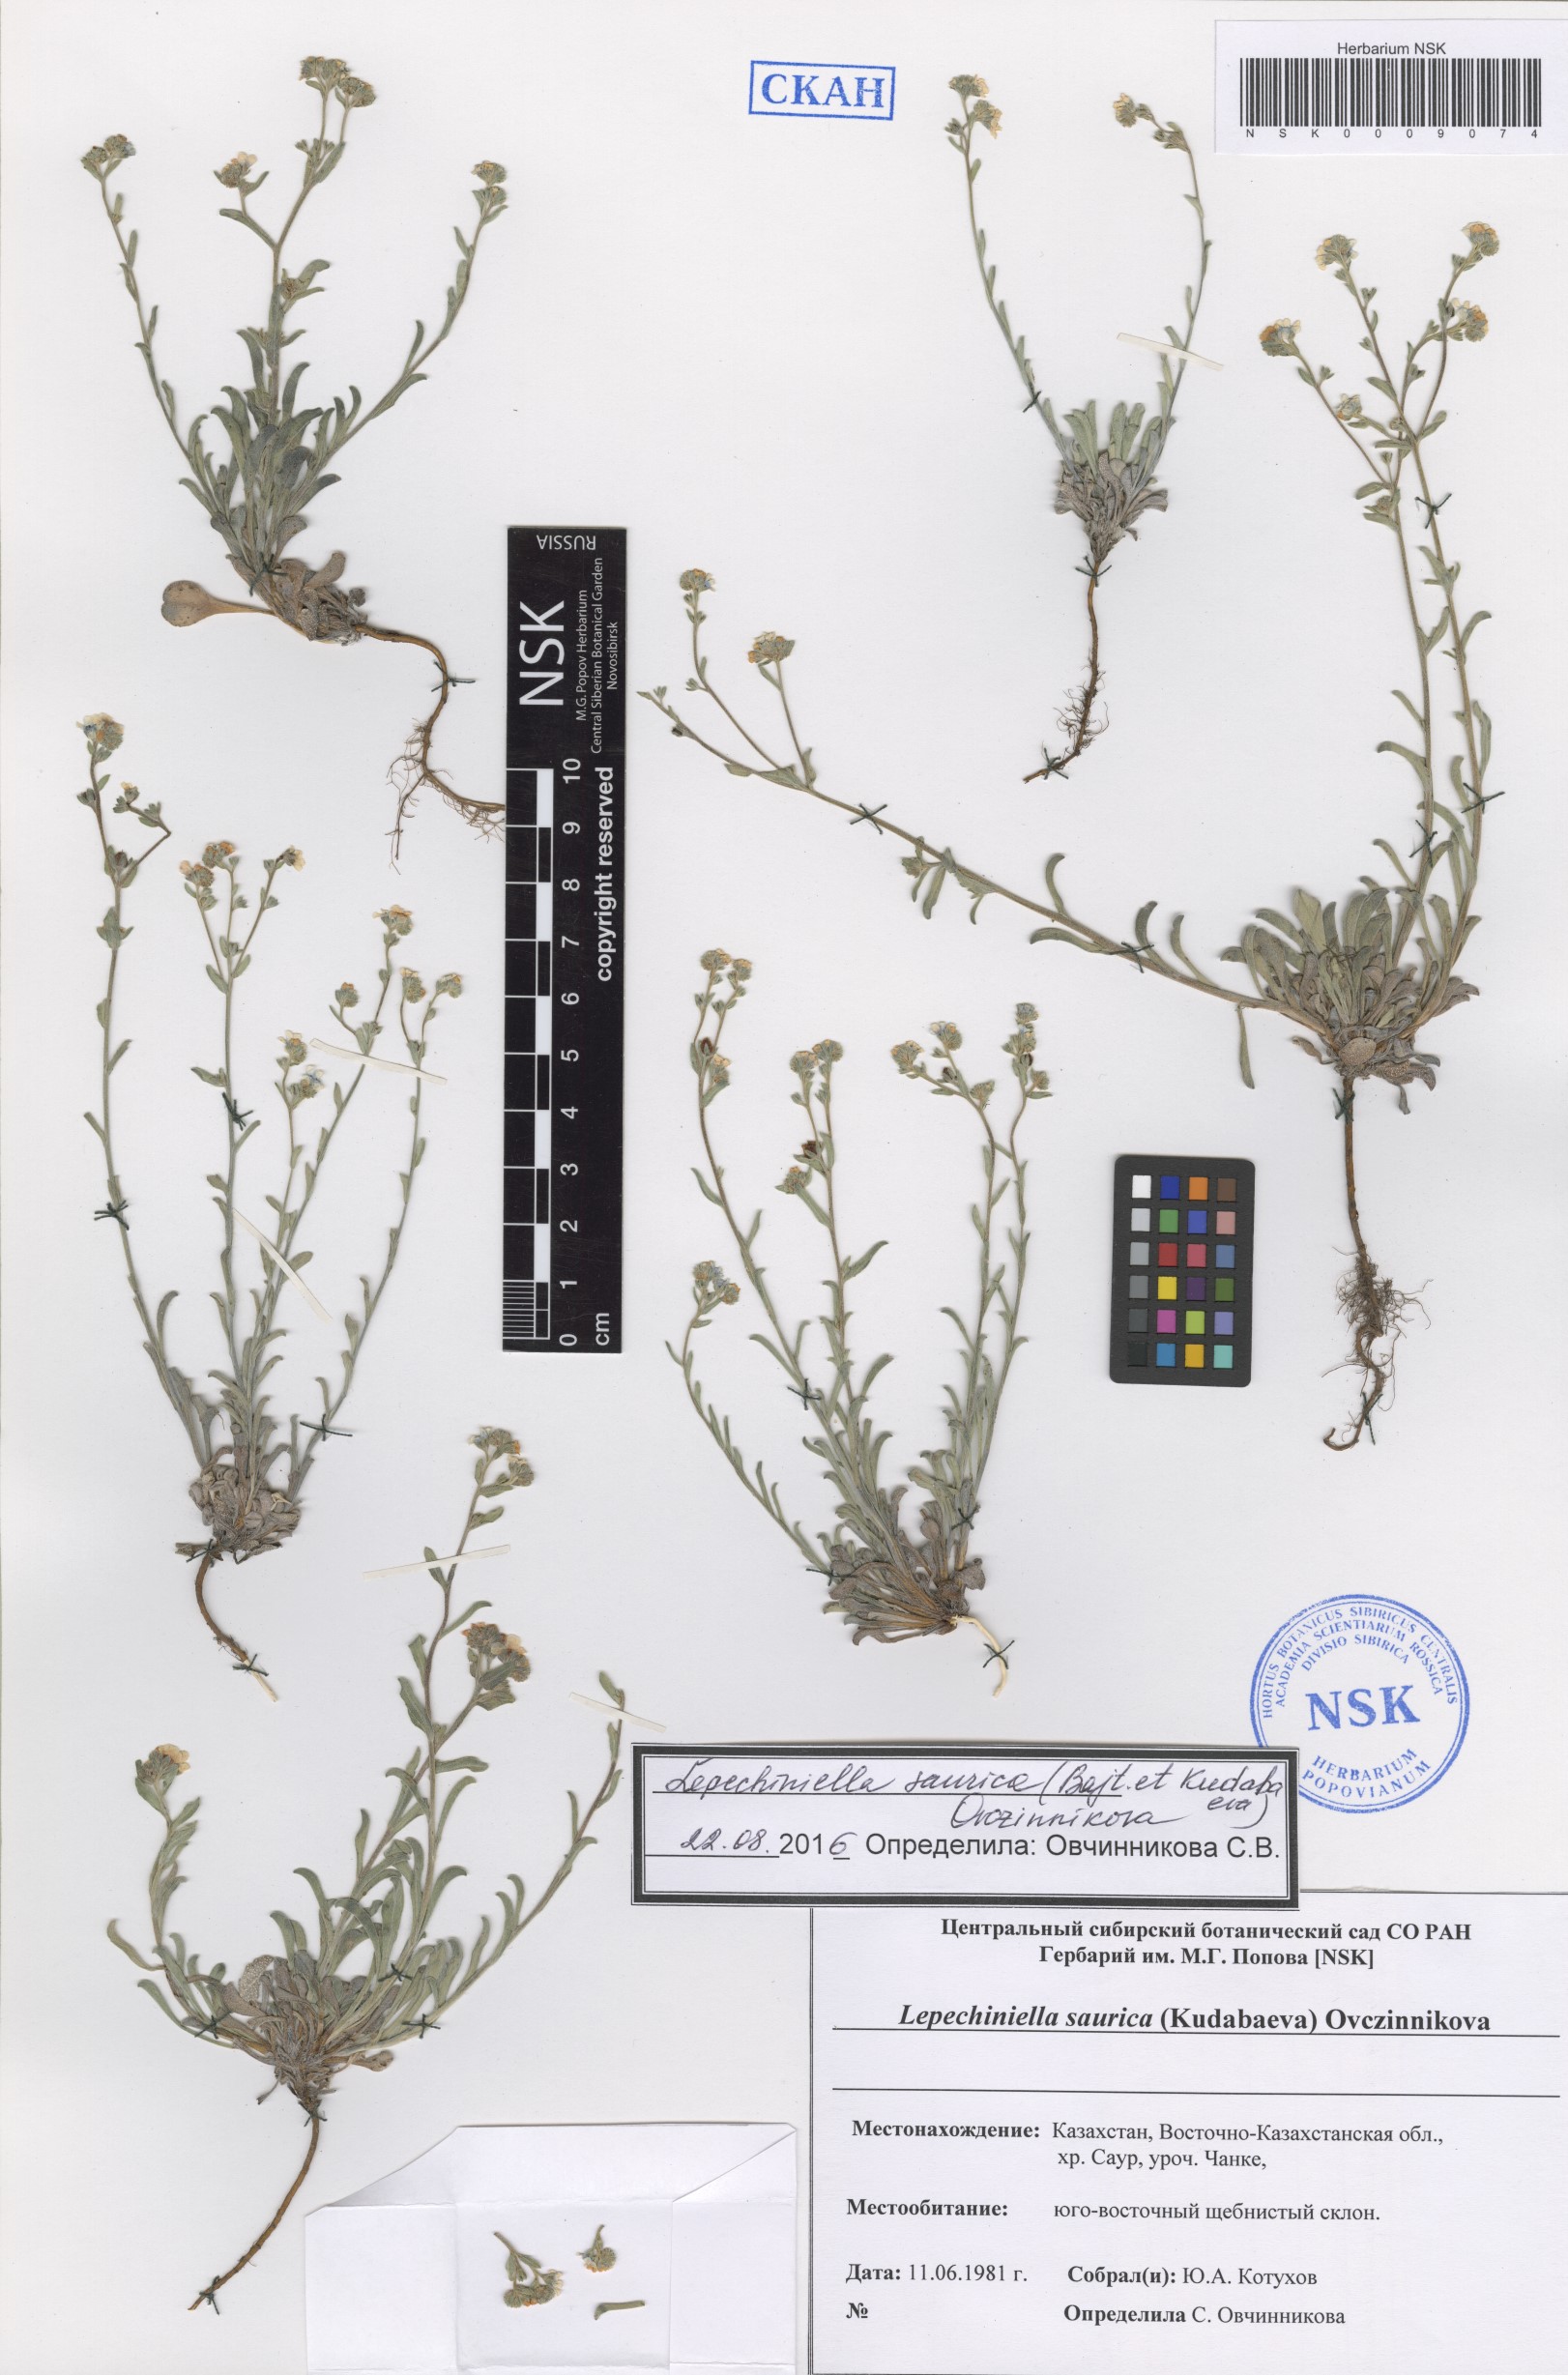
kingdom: Plantae
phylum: Tracheophyta
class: Magnoliopsida
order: Boraginales
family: Boraginaceae
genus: Lepechiniella
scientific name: Lepechiniella saurica
